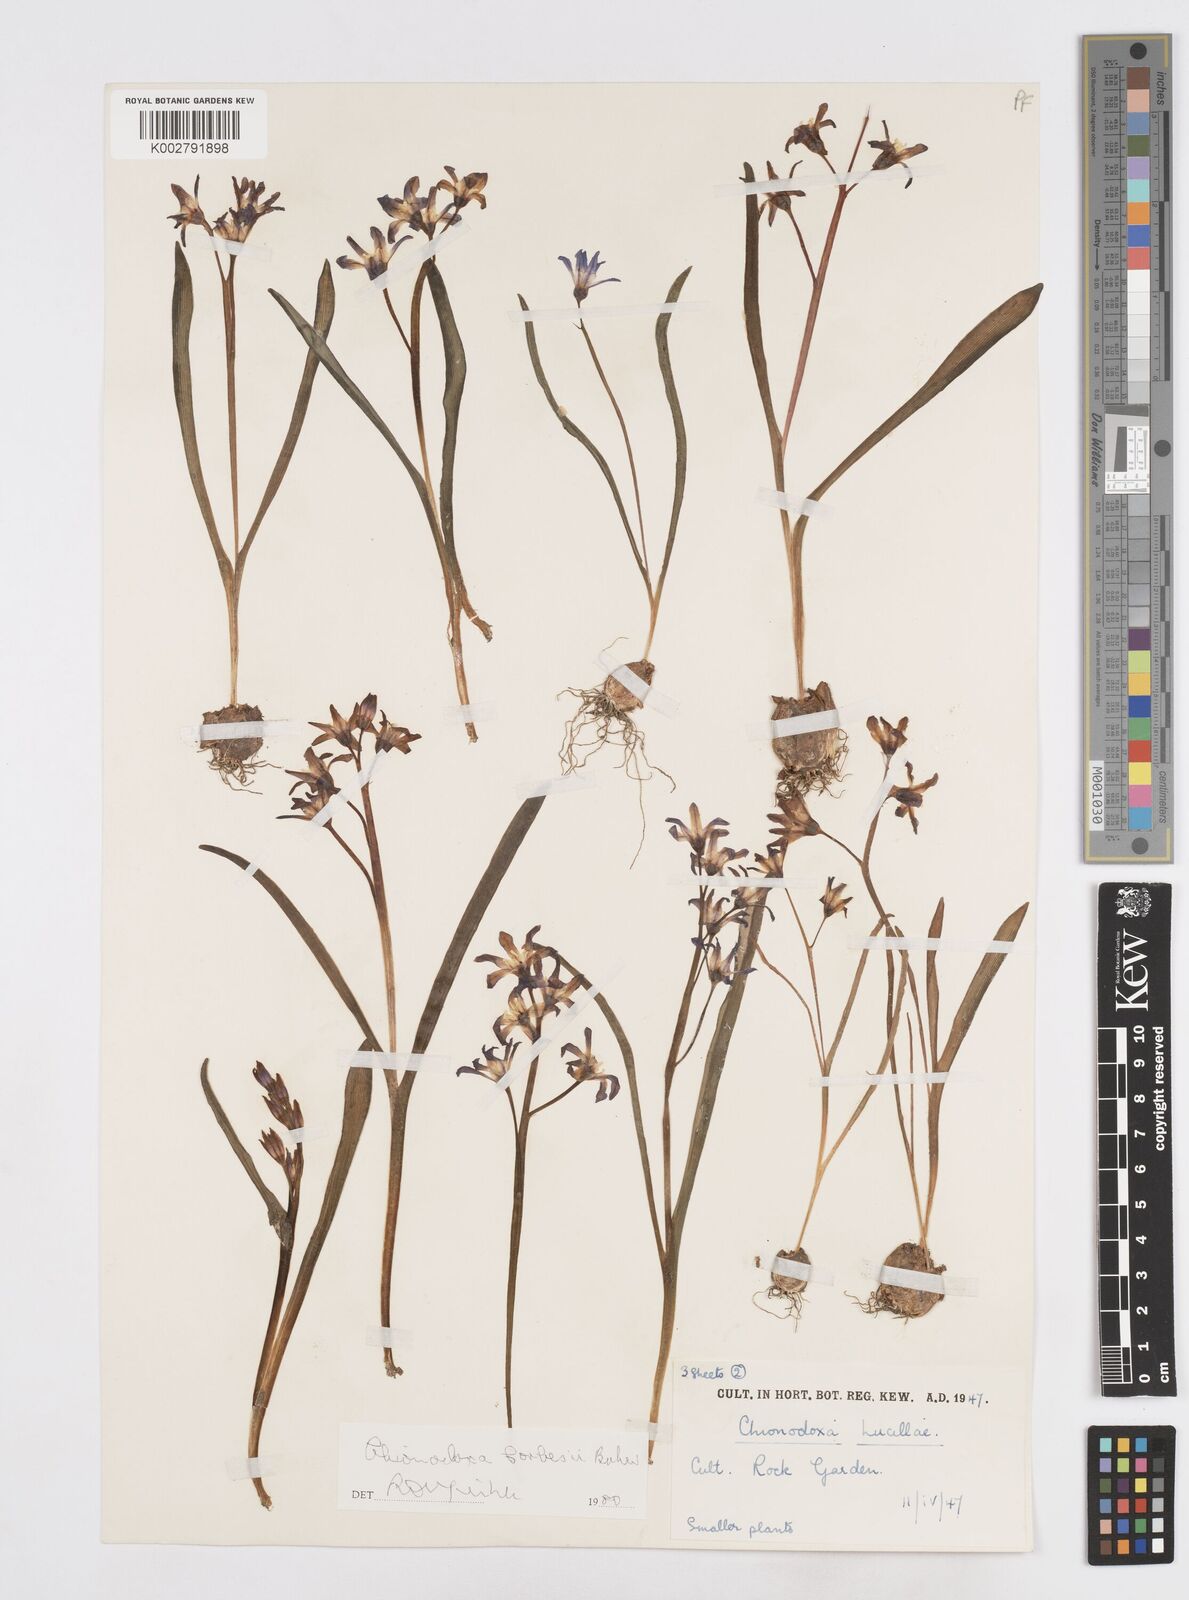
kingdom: Plantae
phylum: Tracheophyta
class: Liliopsida
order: Asparagales
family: Asparagaceae
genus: Scilla
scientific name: Scilla forbesii
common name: Glory-of-the-snow
